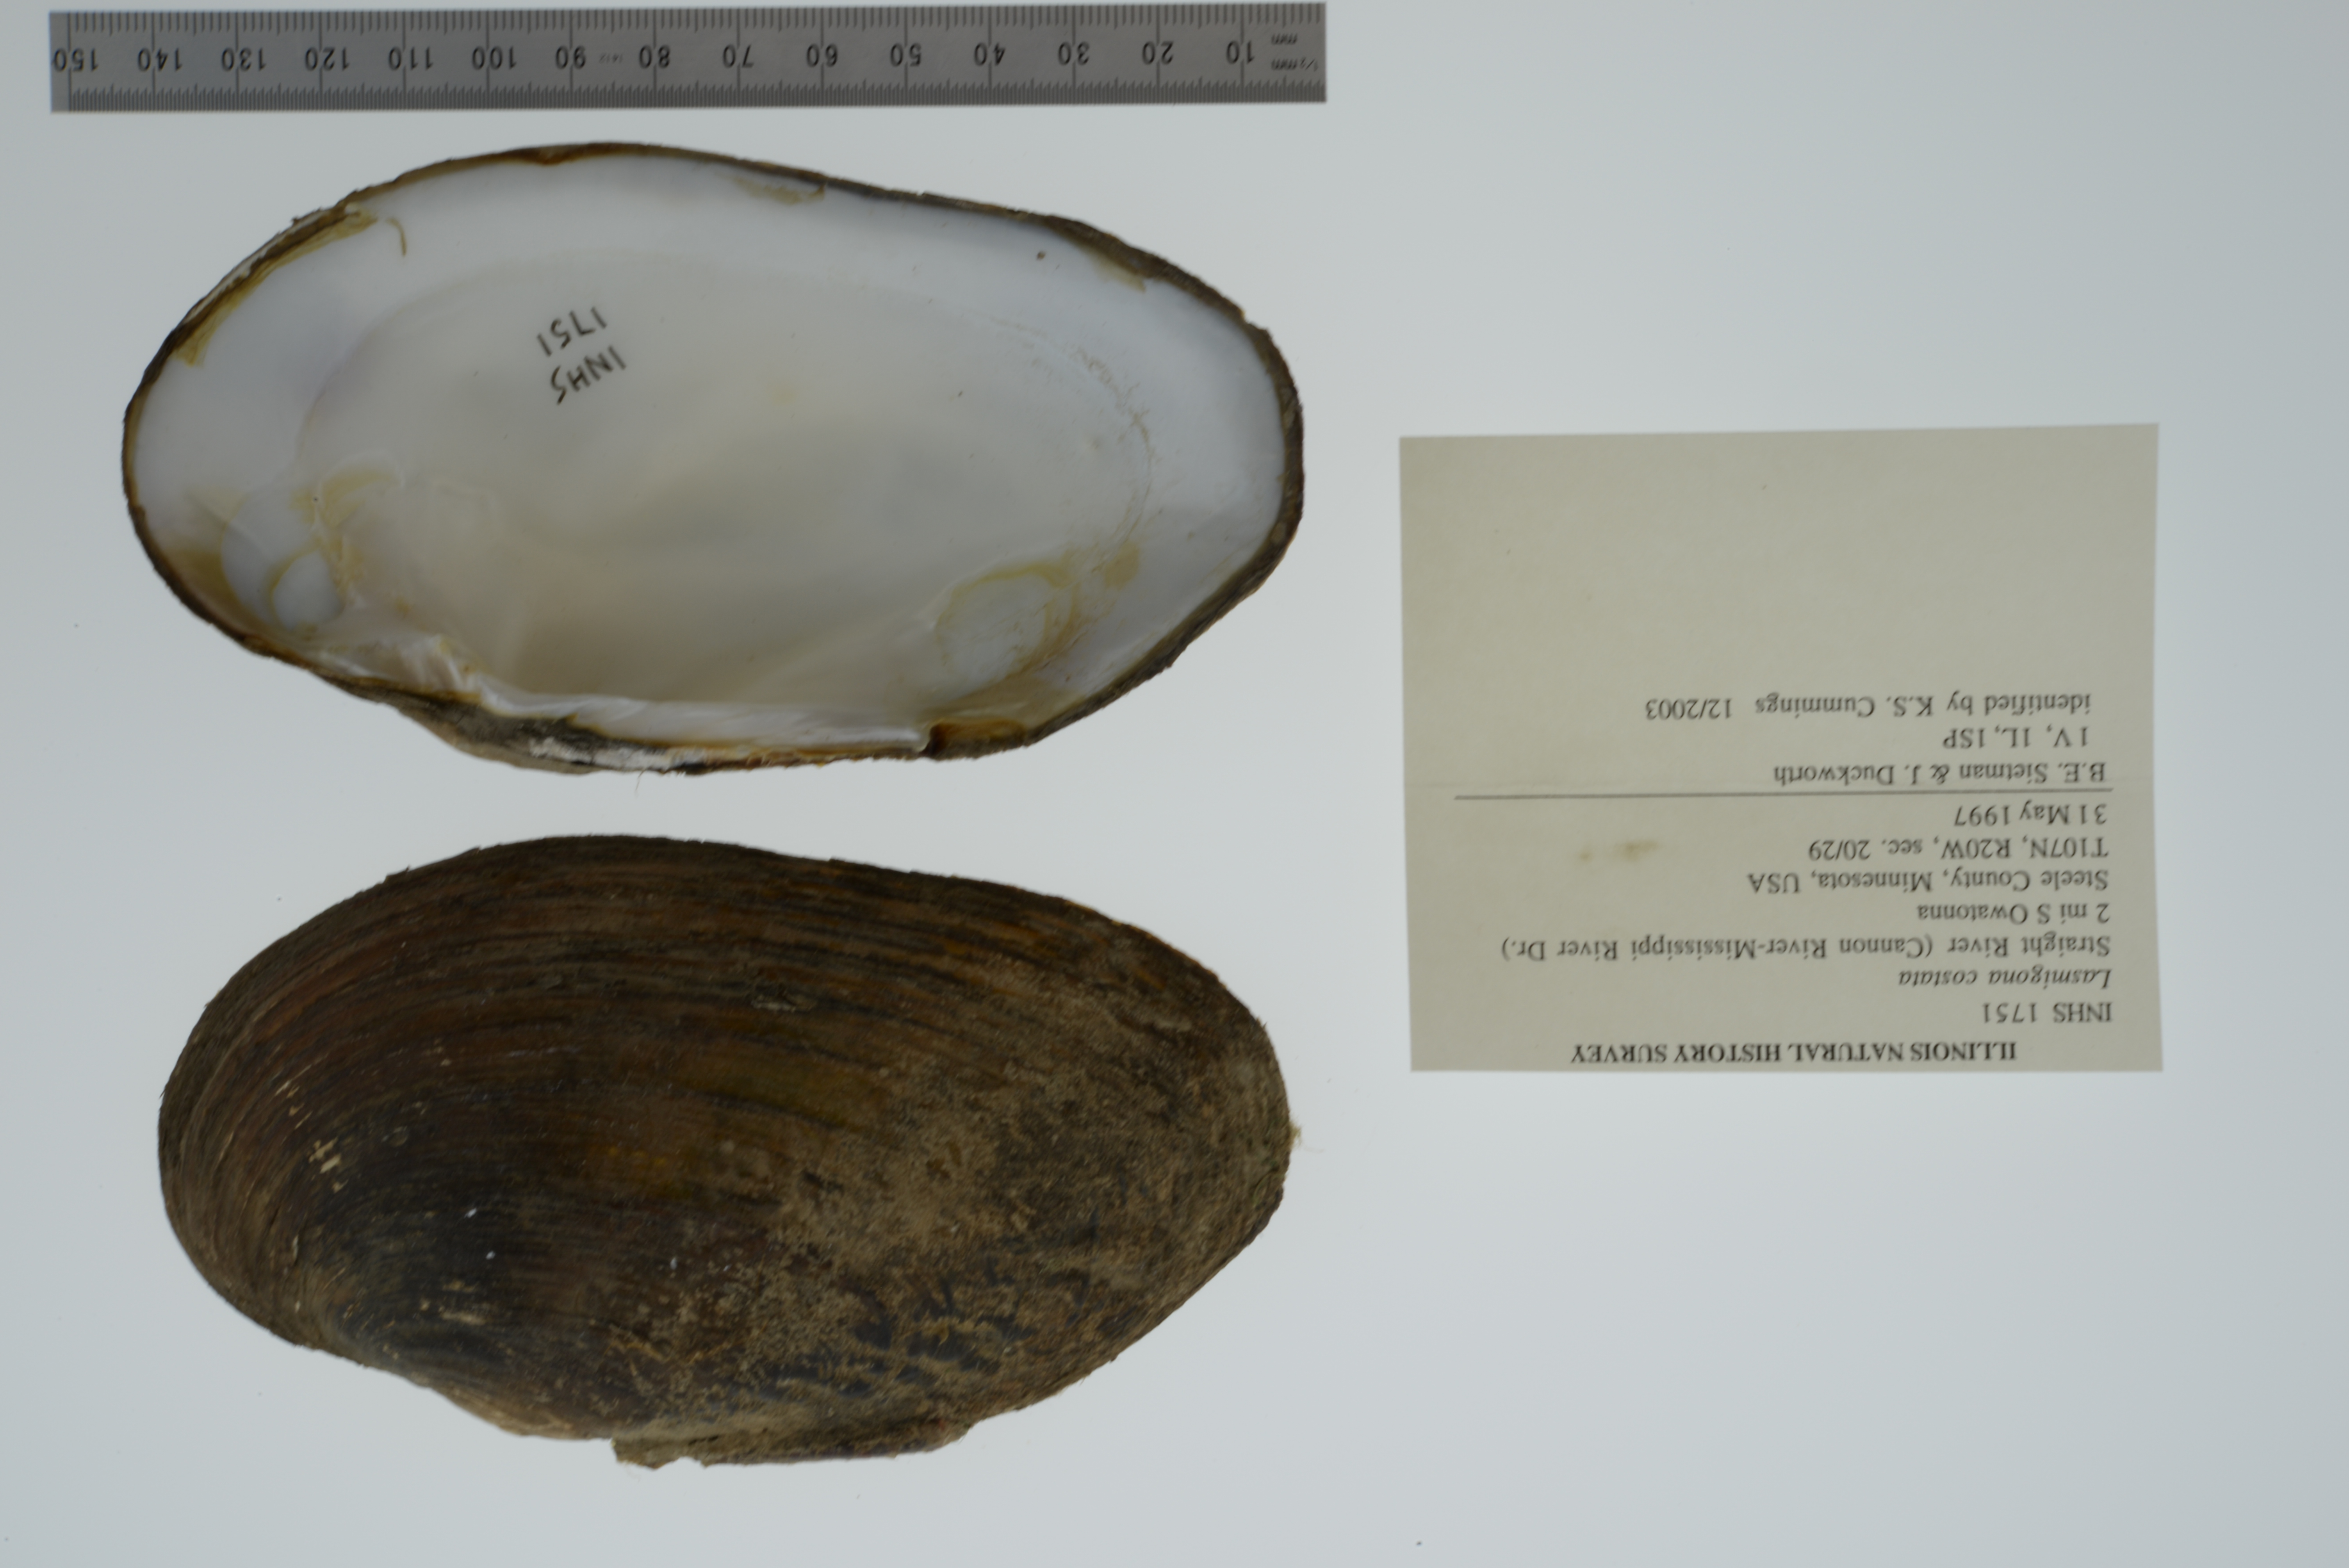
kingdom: Animalia
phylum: Mollusca
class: Bivalvia
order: Unionida
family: Unionidae
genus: Lasmigona
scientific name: Lasmigona costata
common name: Flutedshell
